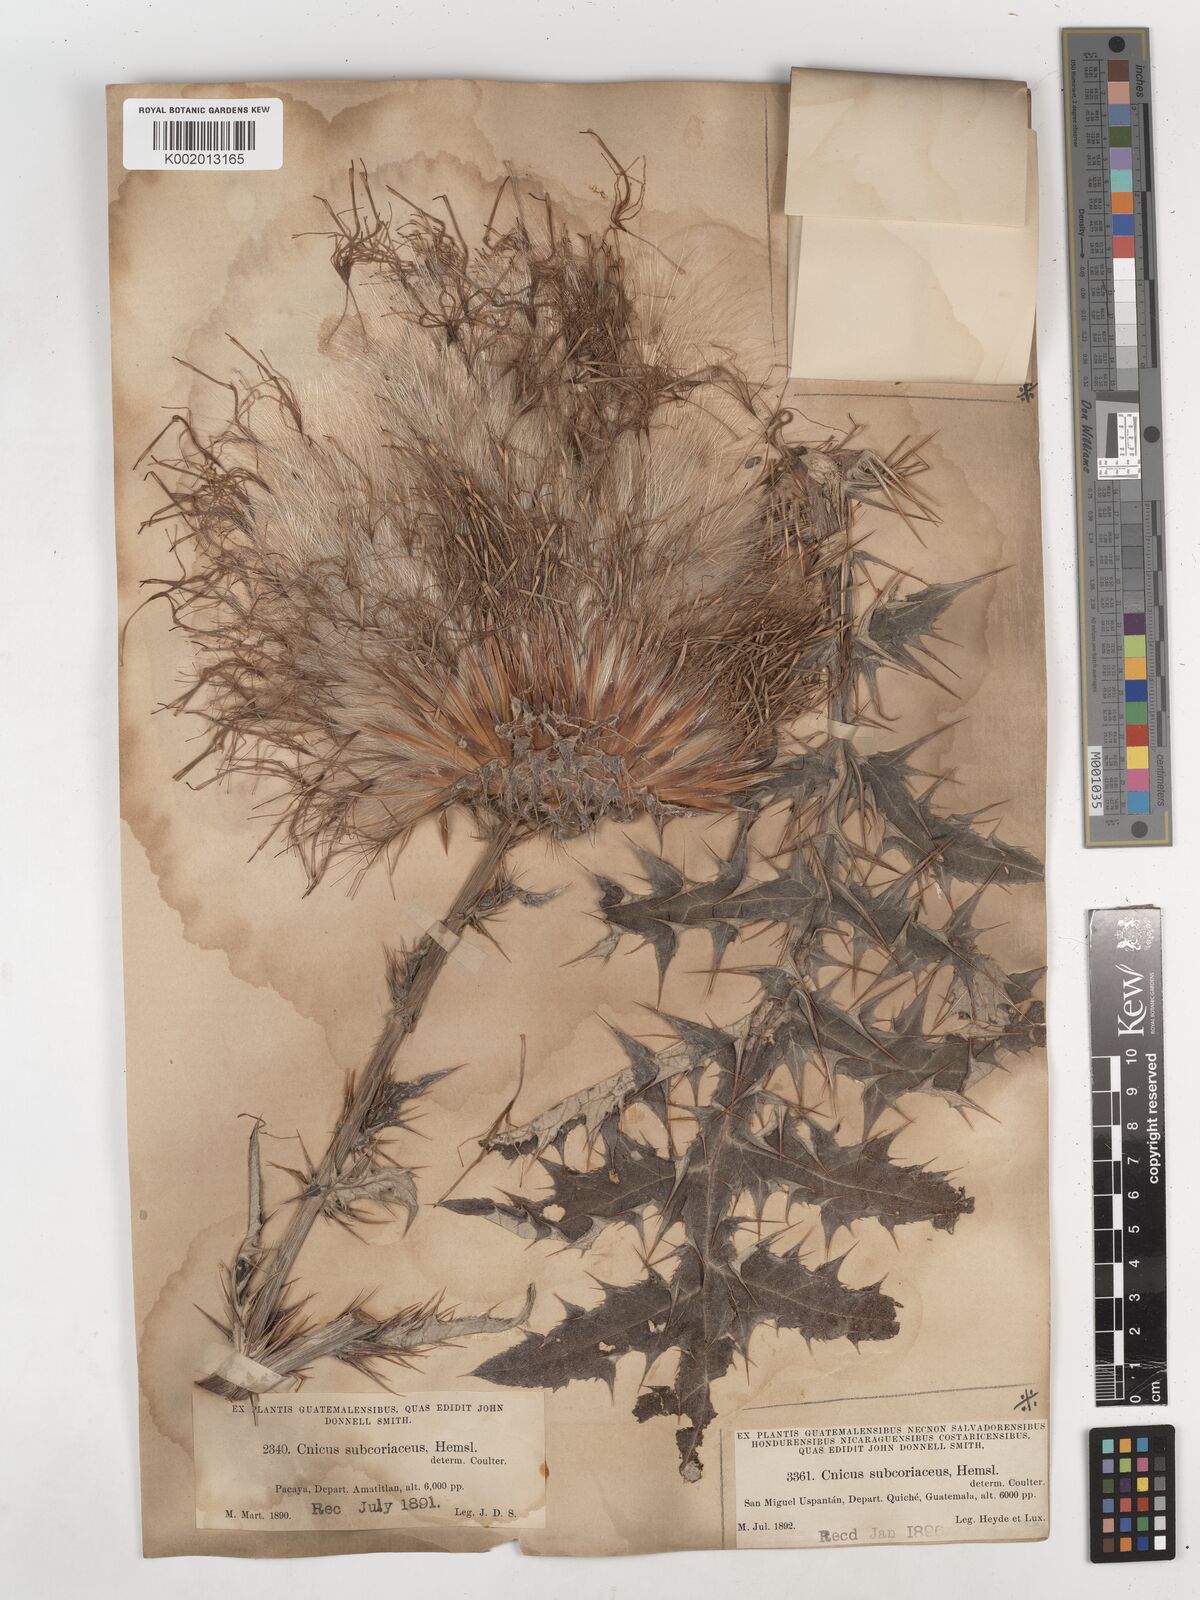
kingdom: Plantae
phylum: Tracheophyta
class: Magnoliopsida
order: Asterales
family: Asteraceae
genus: Cirsium
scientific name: Cirsium subcoriaceum
